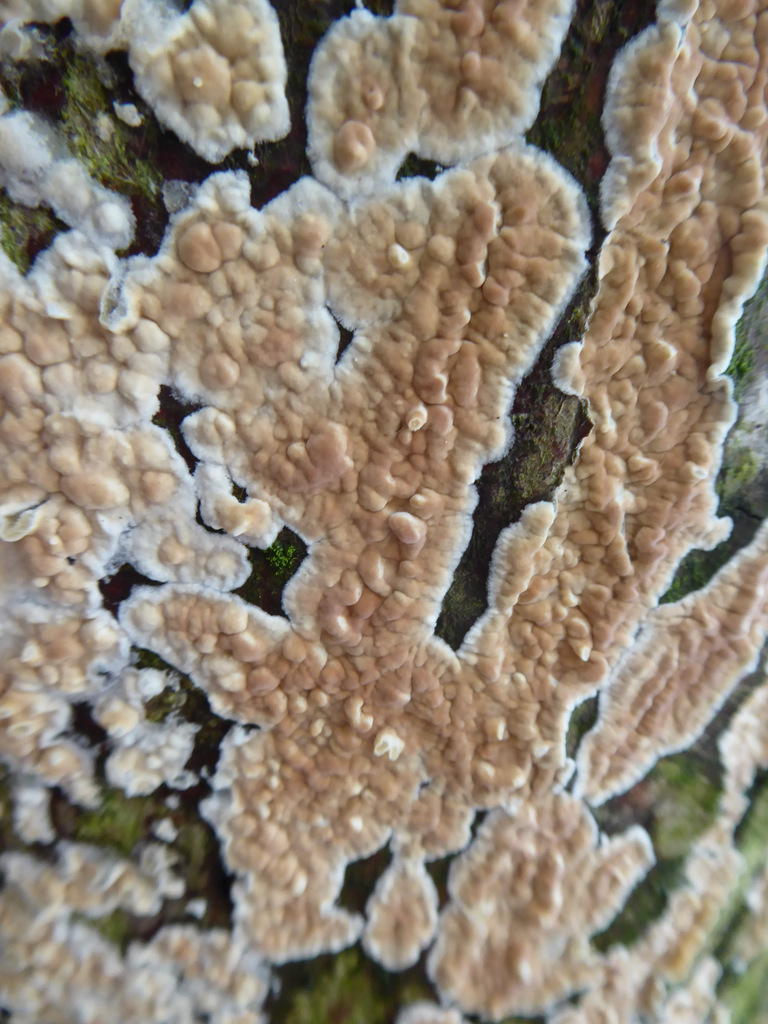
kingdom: Fungi
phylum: Basidiomycota
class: Agaricomycetes
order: Agaricales
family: Physalacriaceae
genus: Cylindrobasidium
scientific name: Cylindrobasidium evolvens
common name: sprækkehinde
